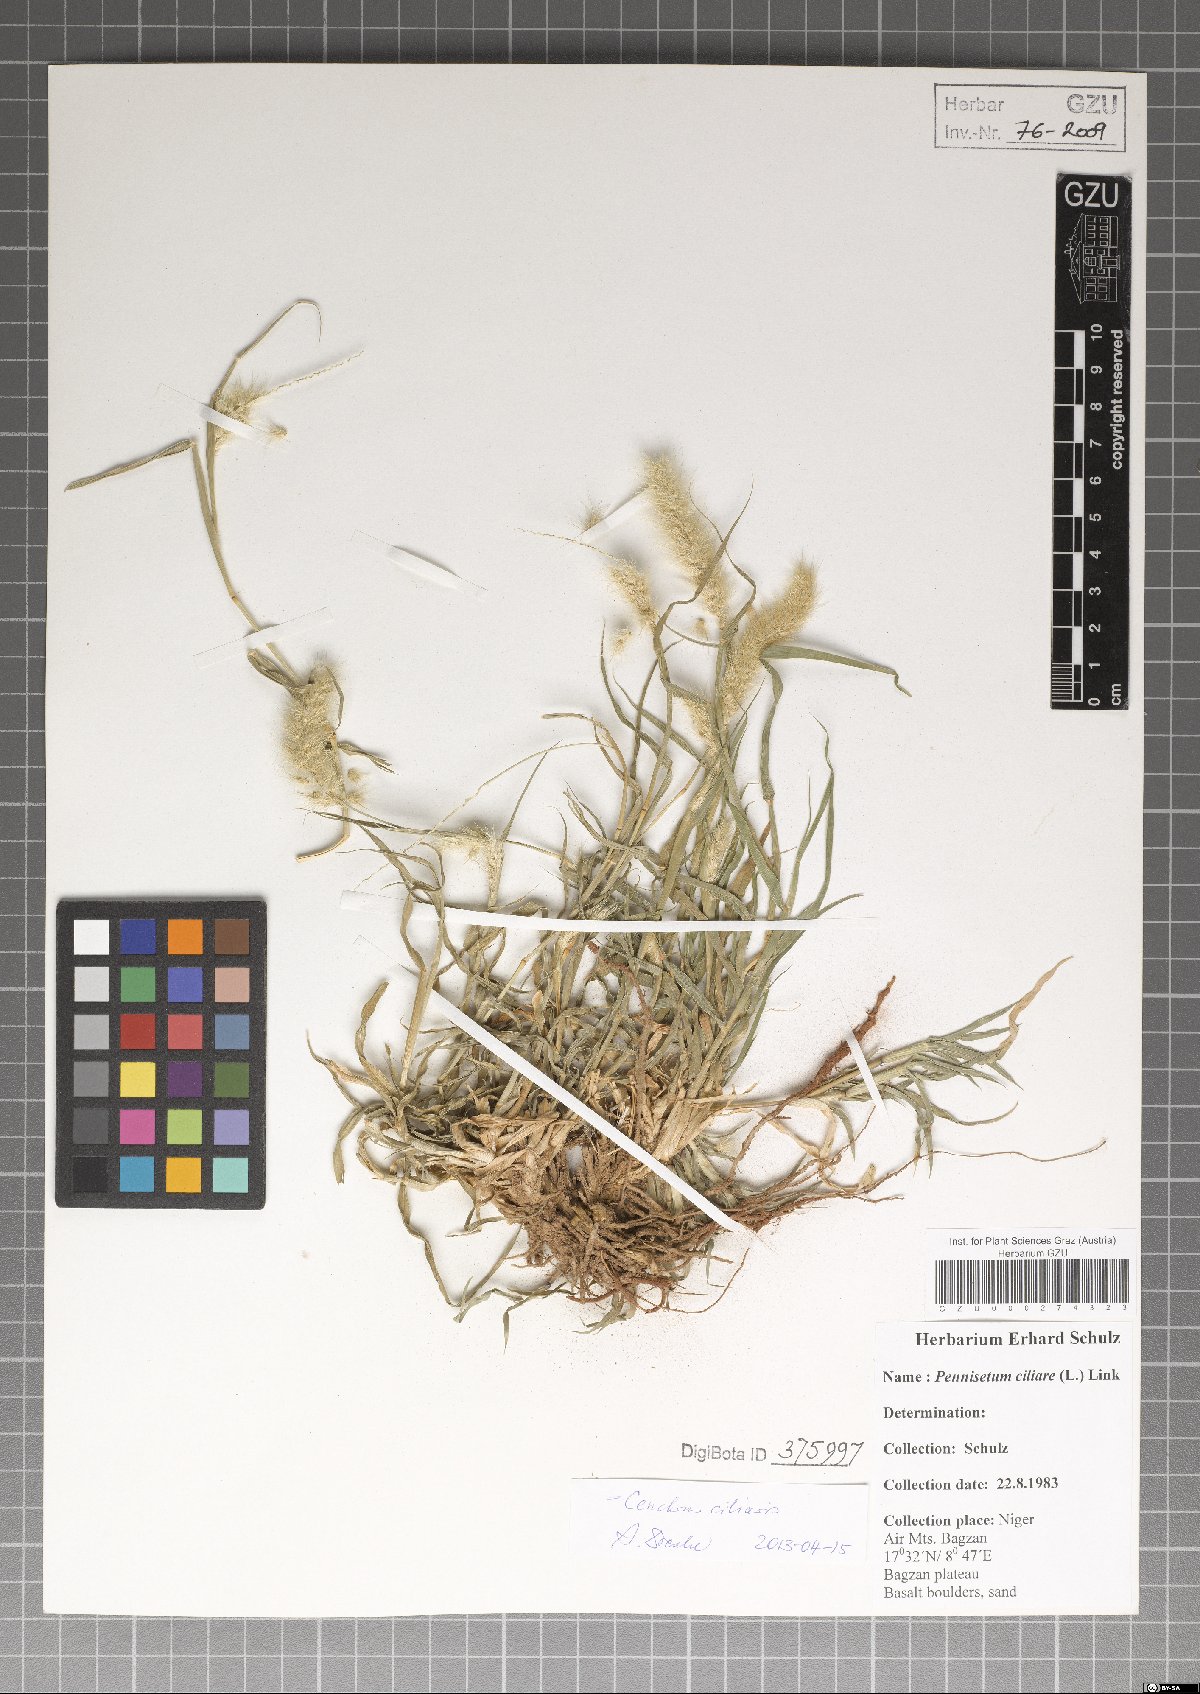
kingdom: Plantae
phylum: Tracheophyta
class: Liliopsida
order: Poales
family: Poaceae
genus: Cenchrus
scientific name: Cenchrus ciliaris
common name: Buffelgrass
